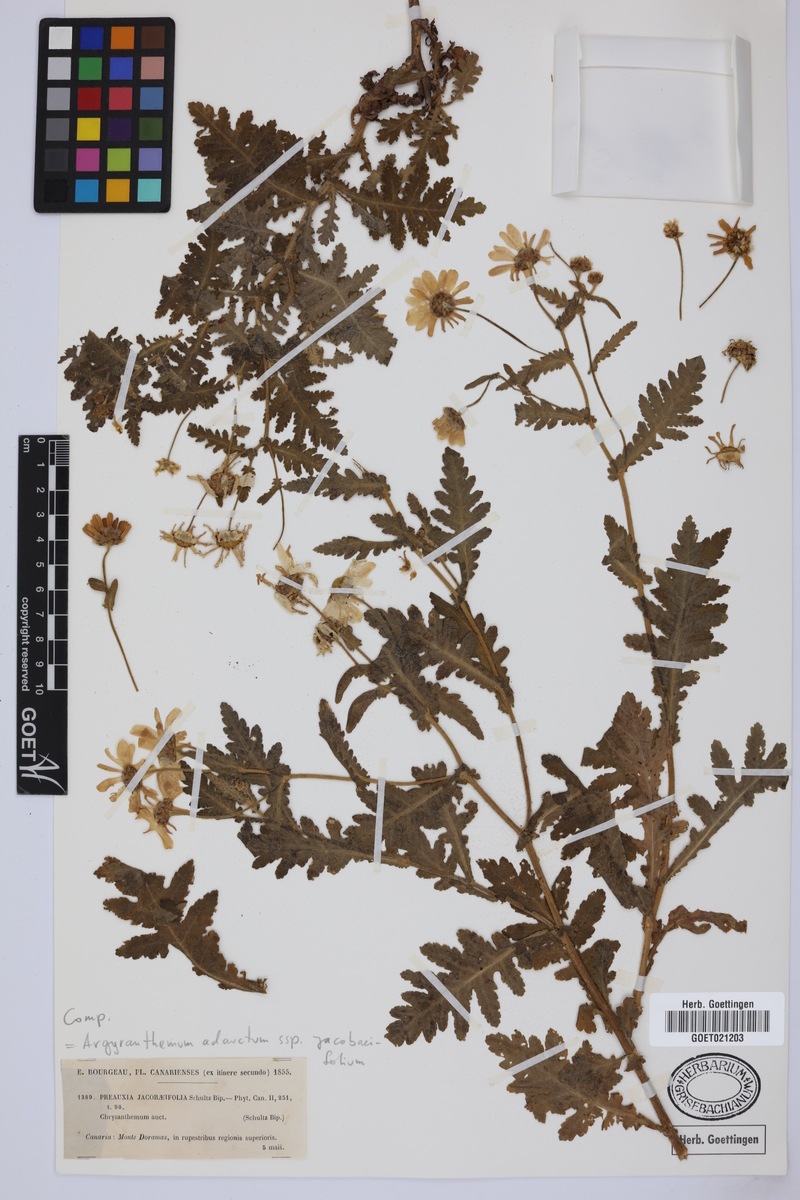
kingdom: Plantae
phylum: Tracheophyta
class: Magnoliopsida
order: Asterales
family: Asteraceae
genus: Argyranthemum
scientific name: Argyranthemum adauctum
